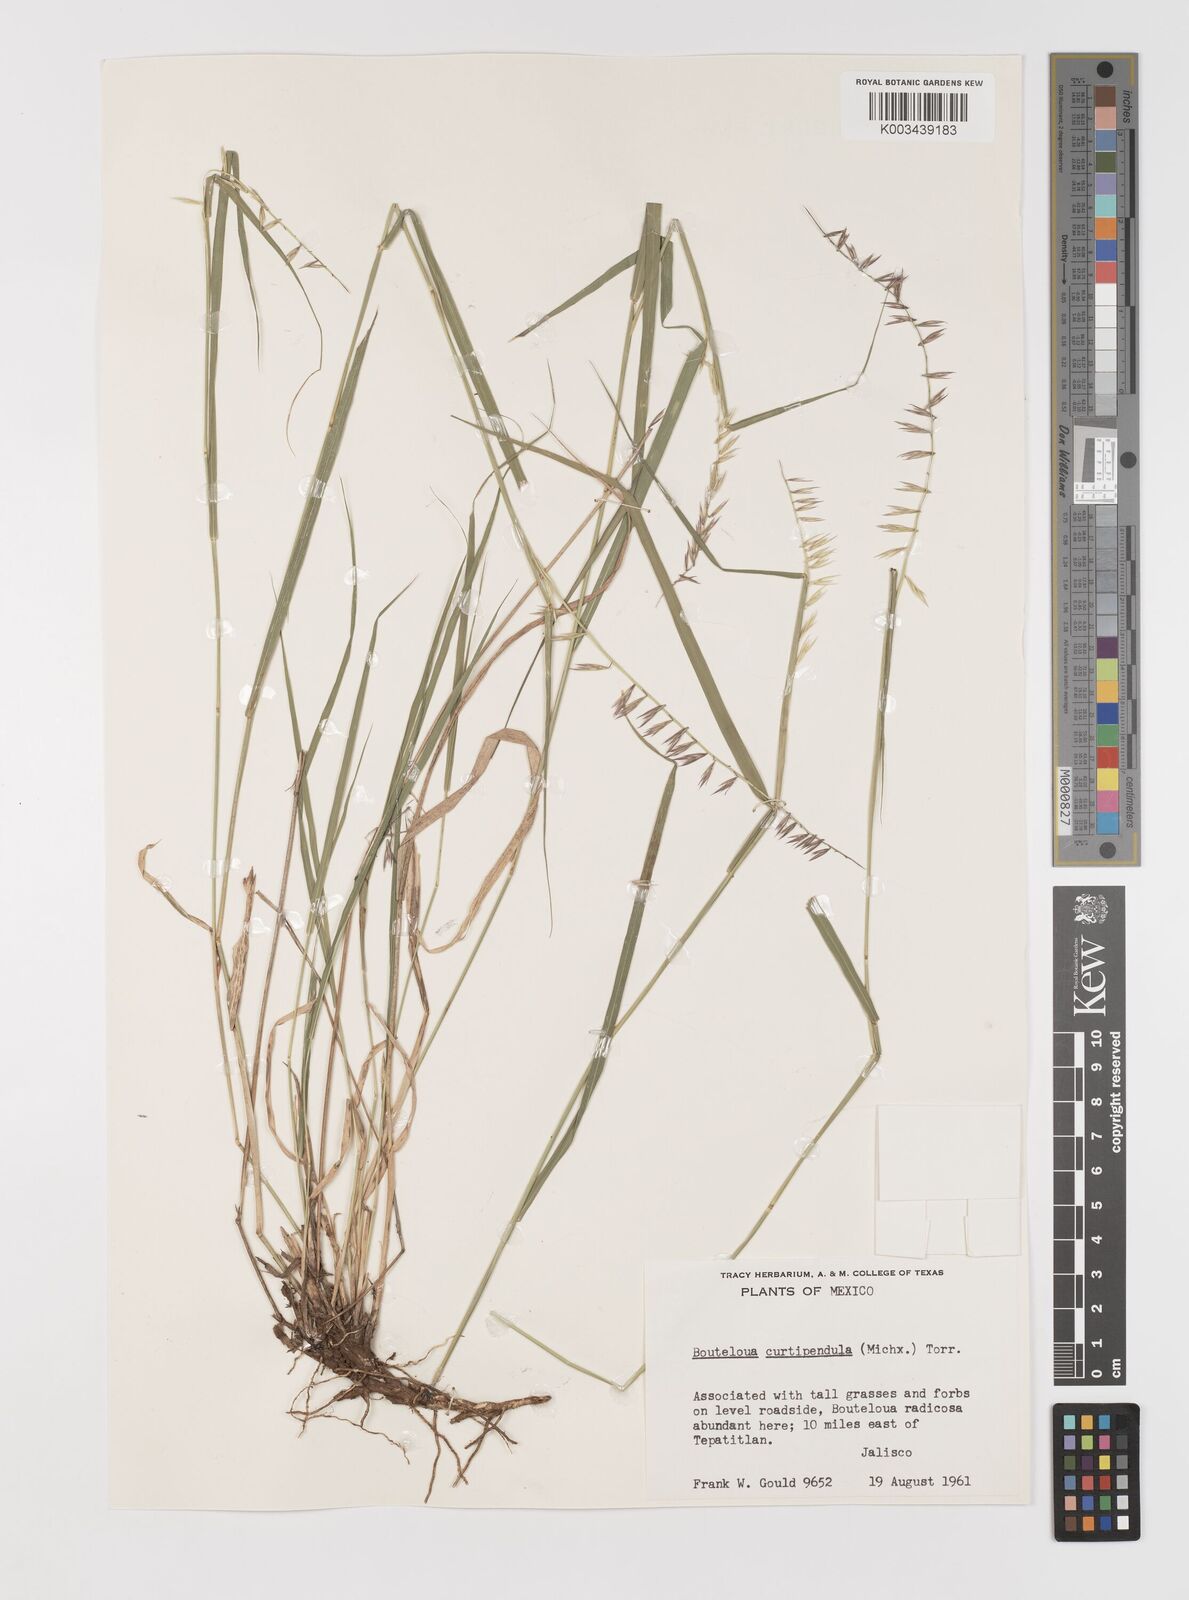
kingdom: Plantae
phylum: Tracheophyta
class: Liliopsida
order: Poales
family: Poaceae
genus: Bouteloua
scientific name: Bouteloua curtipendula
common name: Side-oats grama
